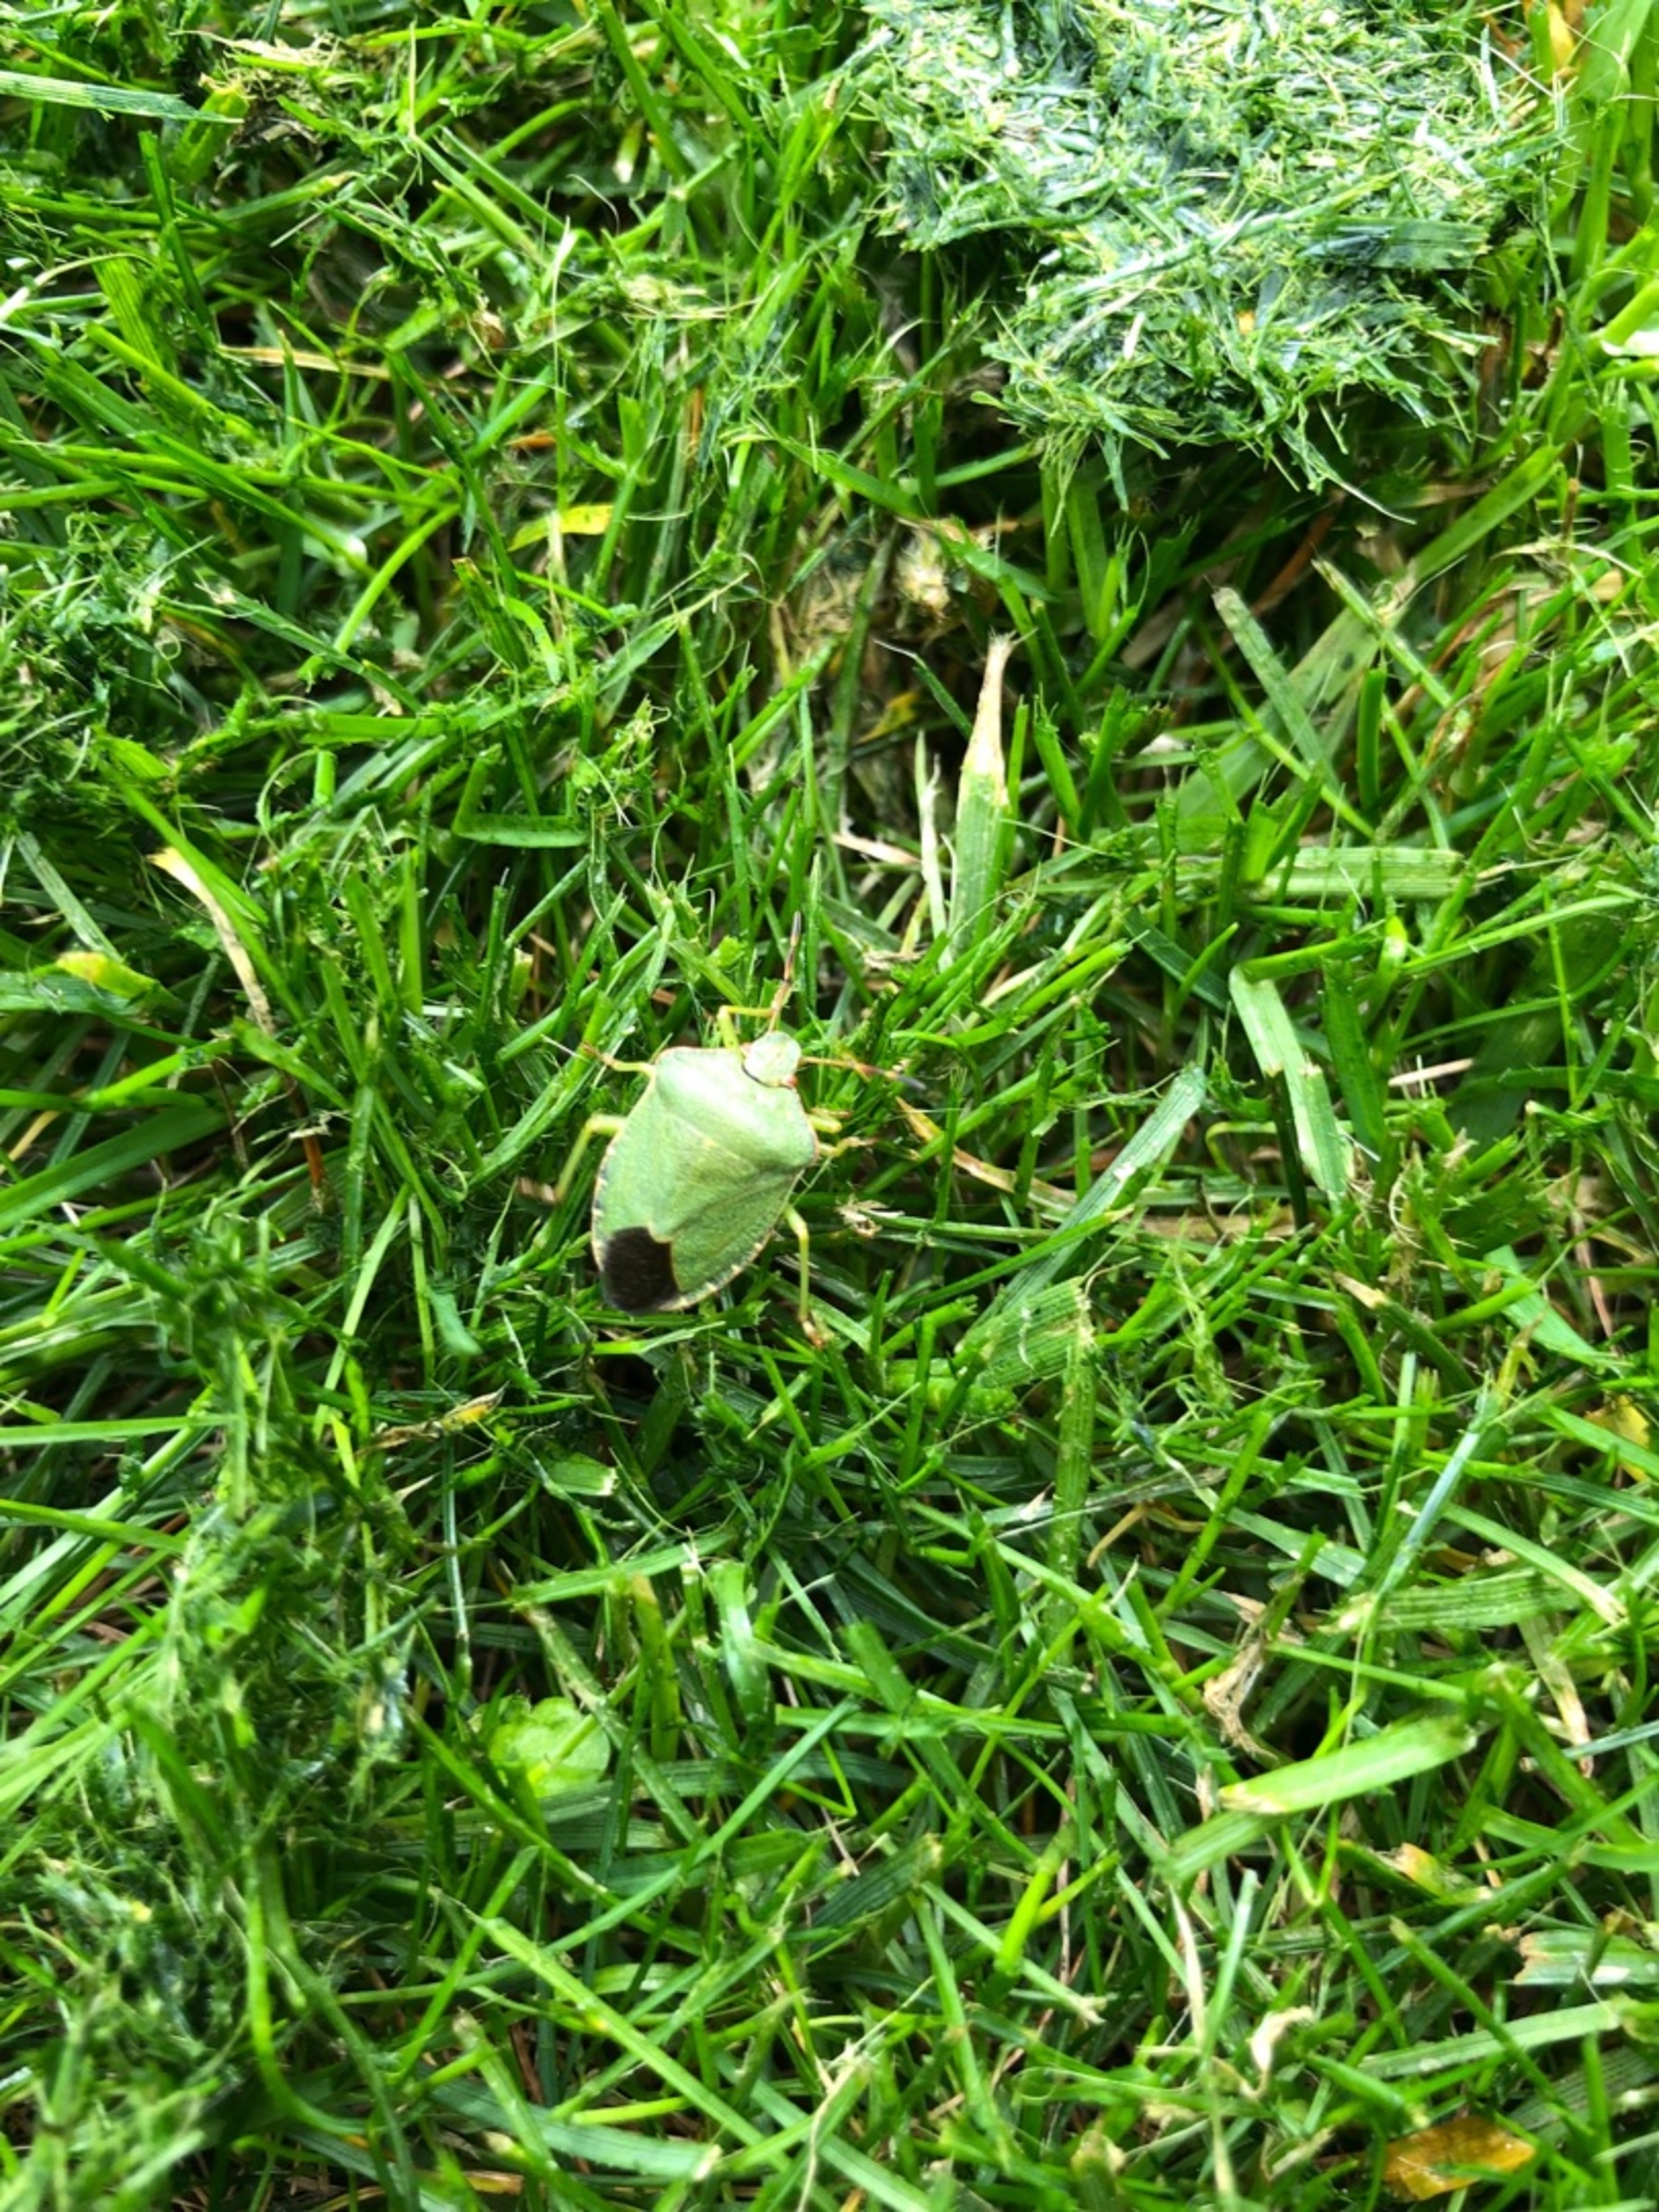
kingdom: Animalia
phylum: Arthropoda
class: Insecta
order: Hemiptera
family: Pentatomidae
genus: Palomena
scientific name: Palomena prasina
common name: Grøn bredtæge
